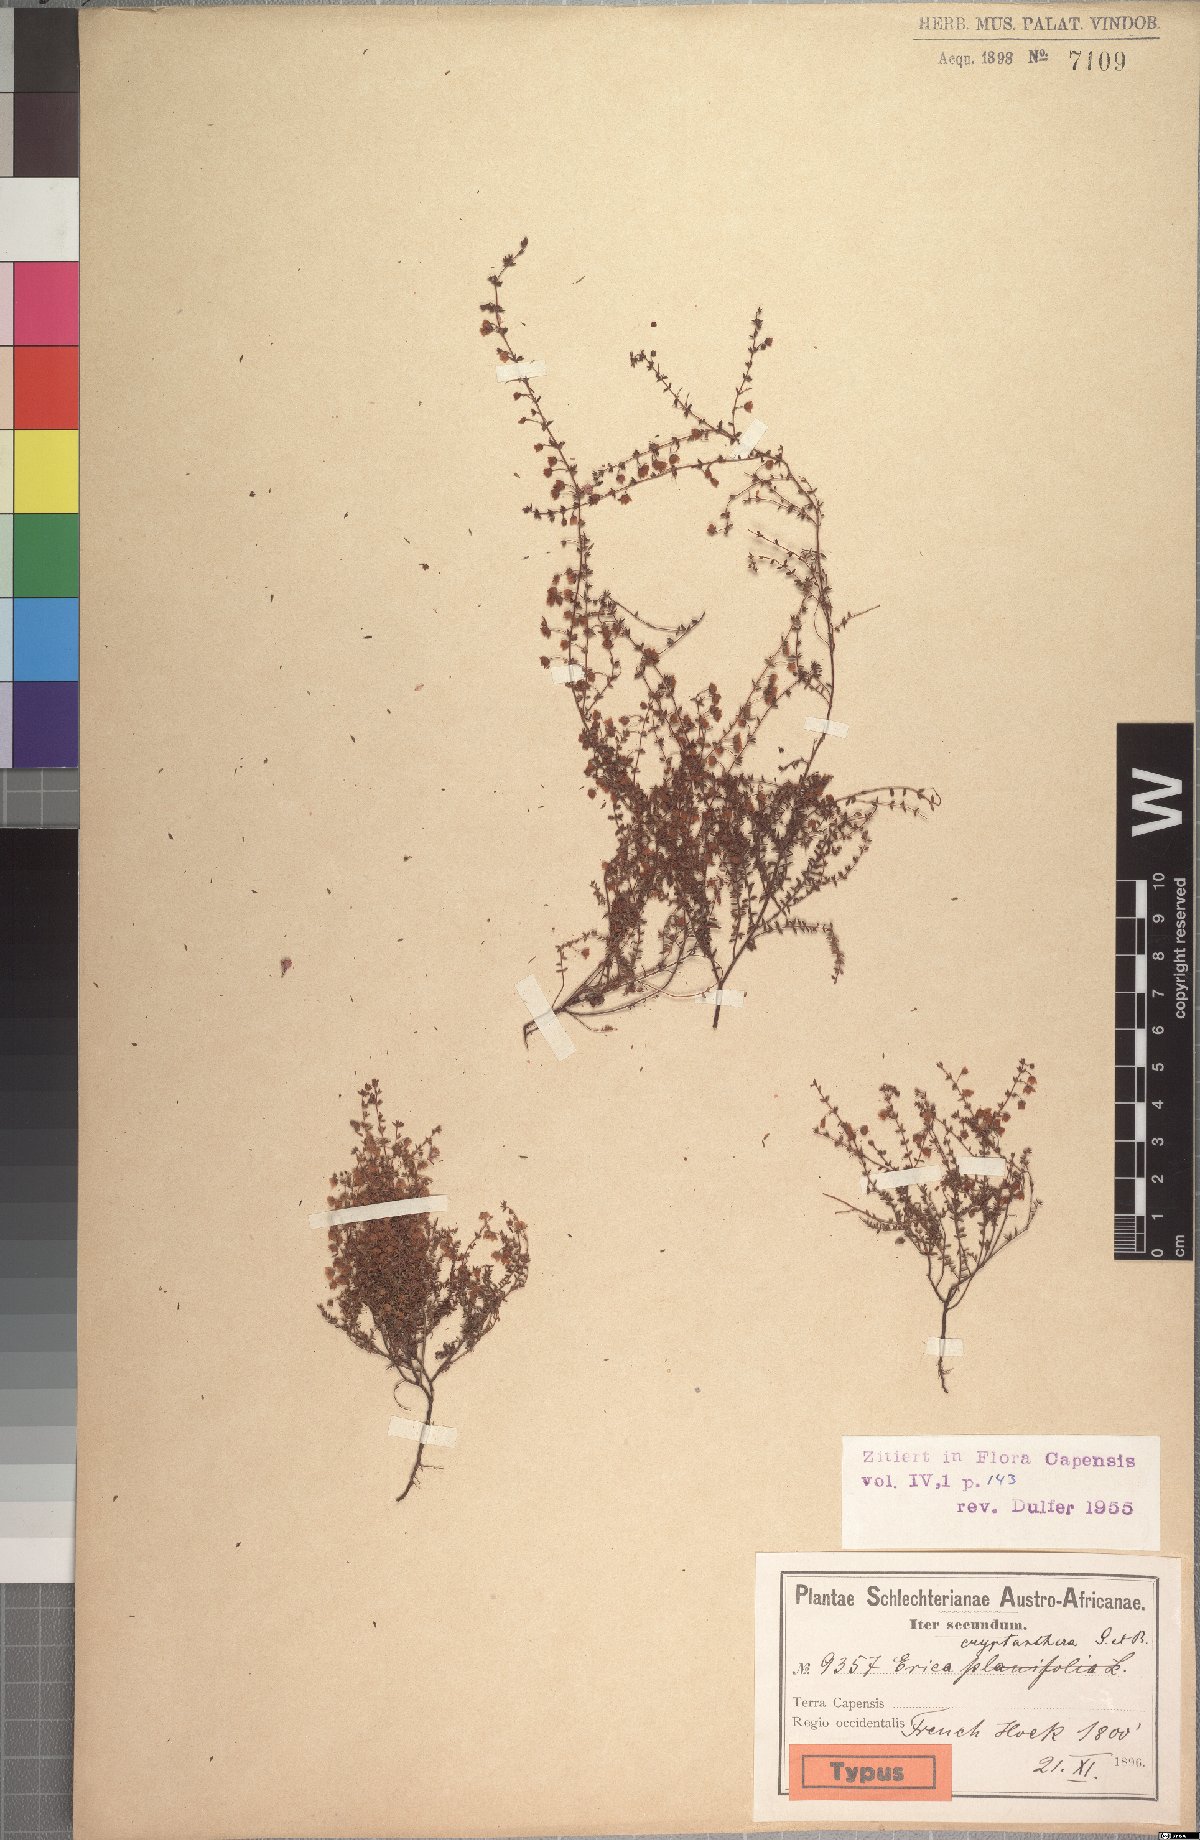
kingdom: Plantae
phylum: Tracheophyta
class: Magnoliopsida
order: Ericales
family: Ericaceae
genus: Erica
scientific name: Erica cryptanthera
